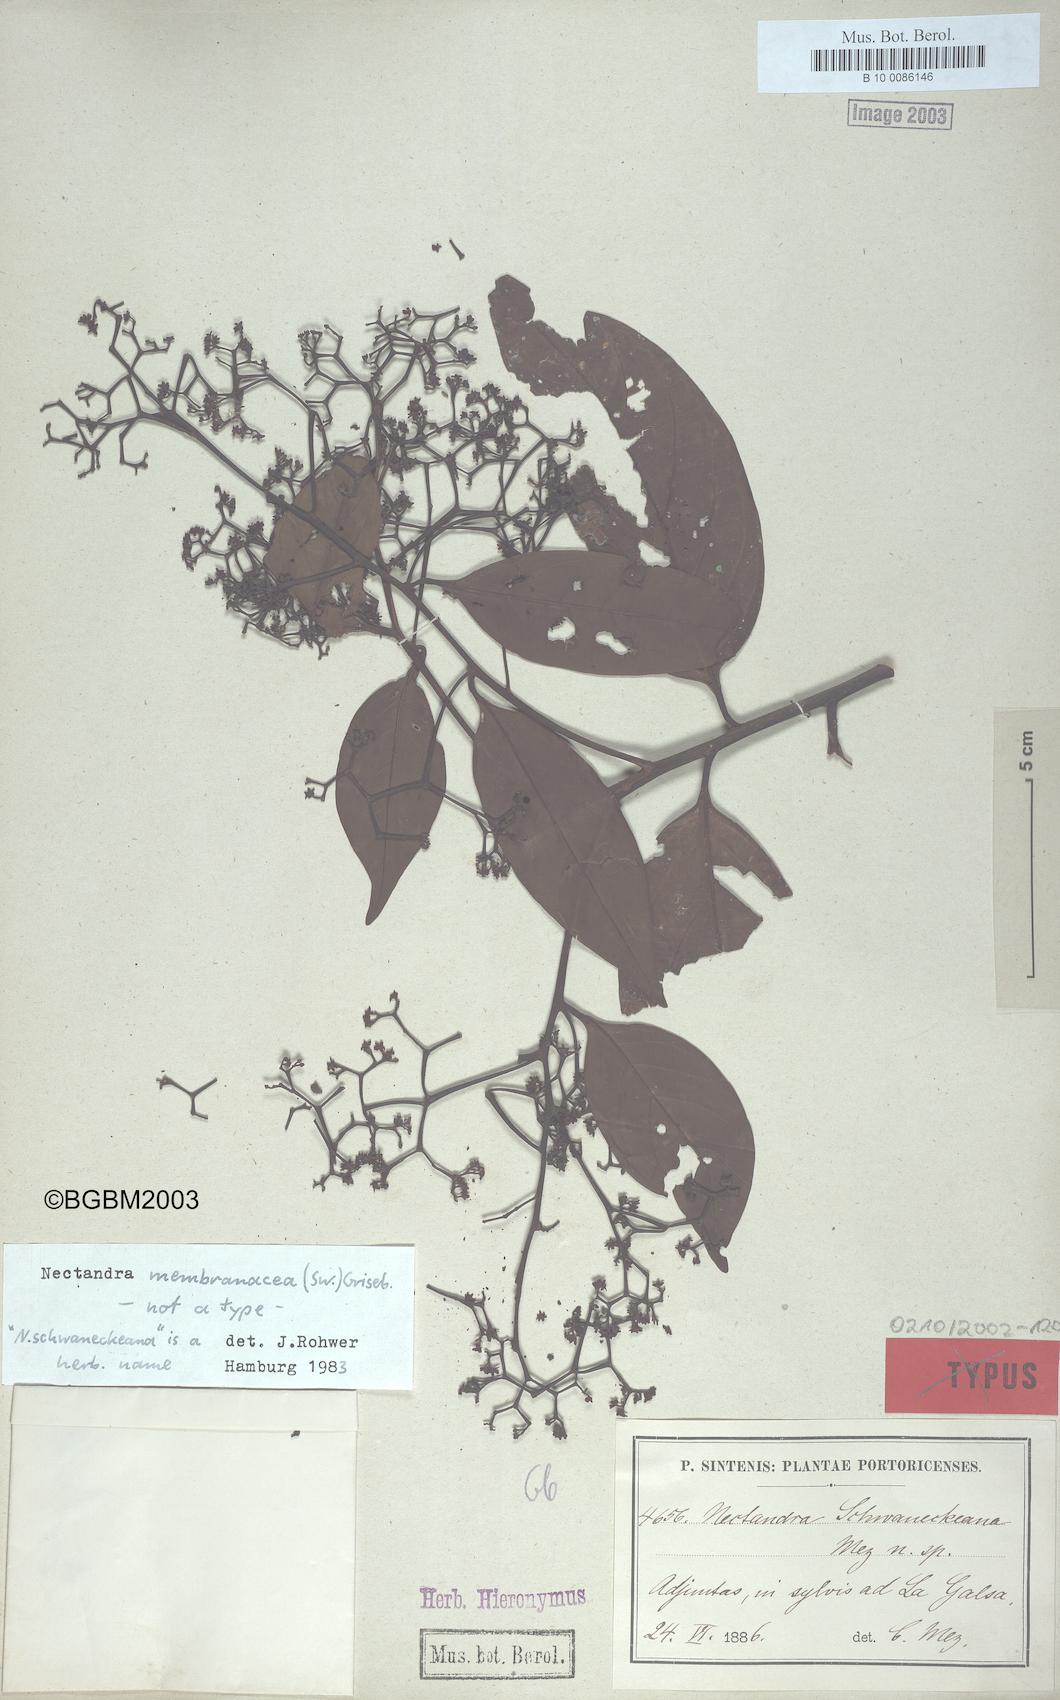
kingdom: Plantae
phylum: Tracheophyta
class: Magnoliopsida
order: Laurales
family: Lauraceae
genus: Nectandra
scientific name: Nectandra membranacea
